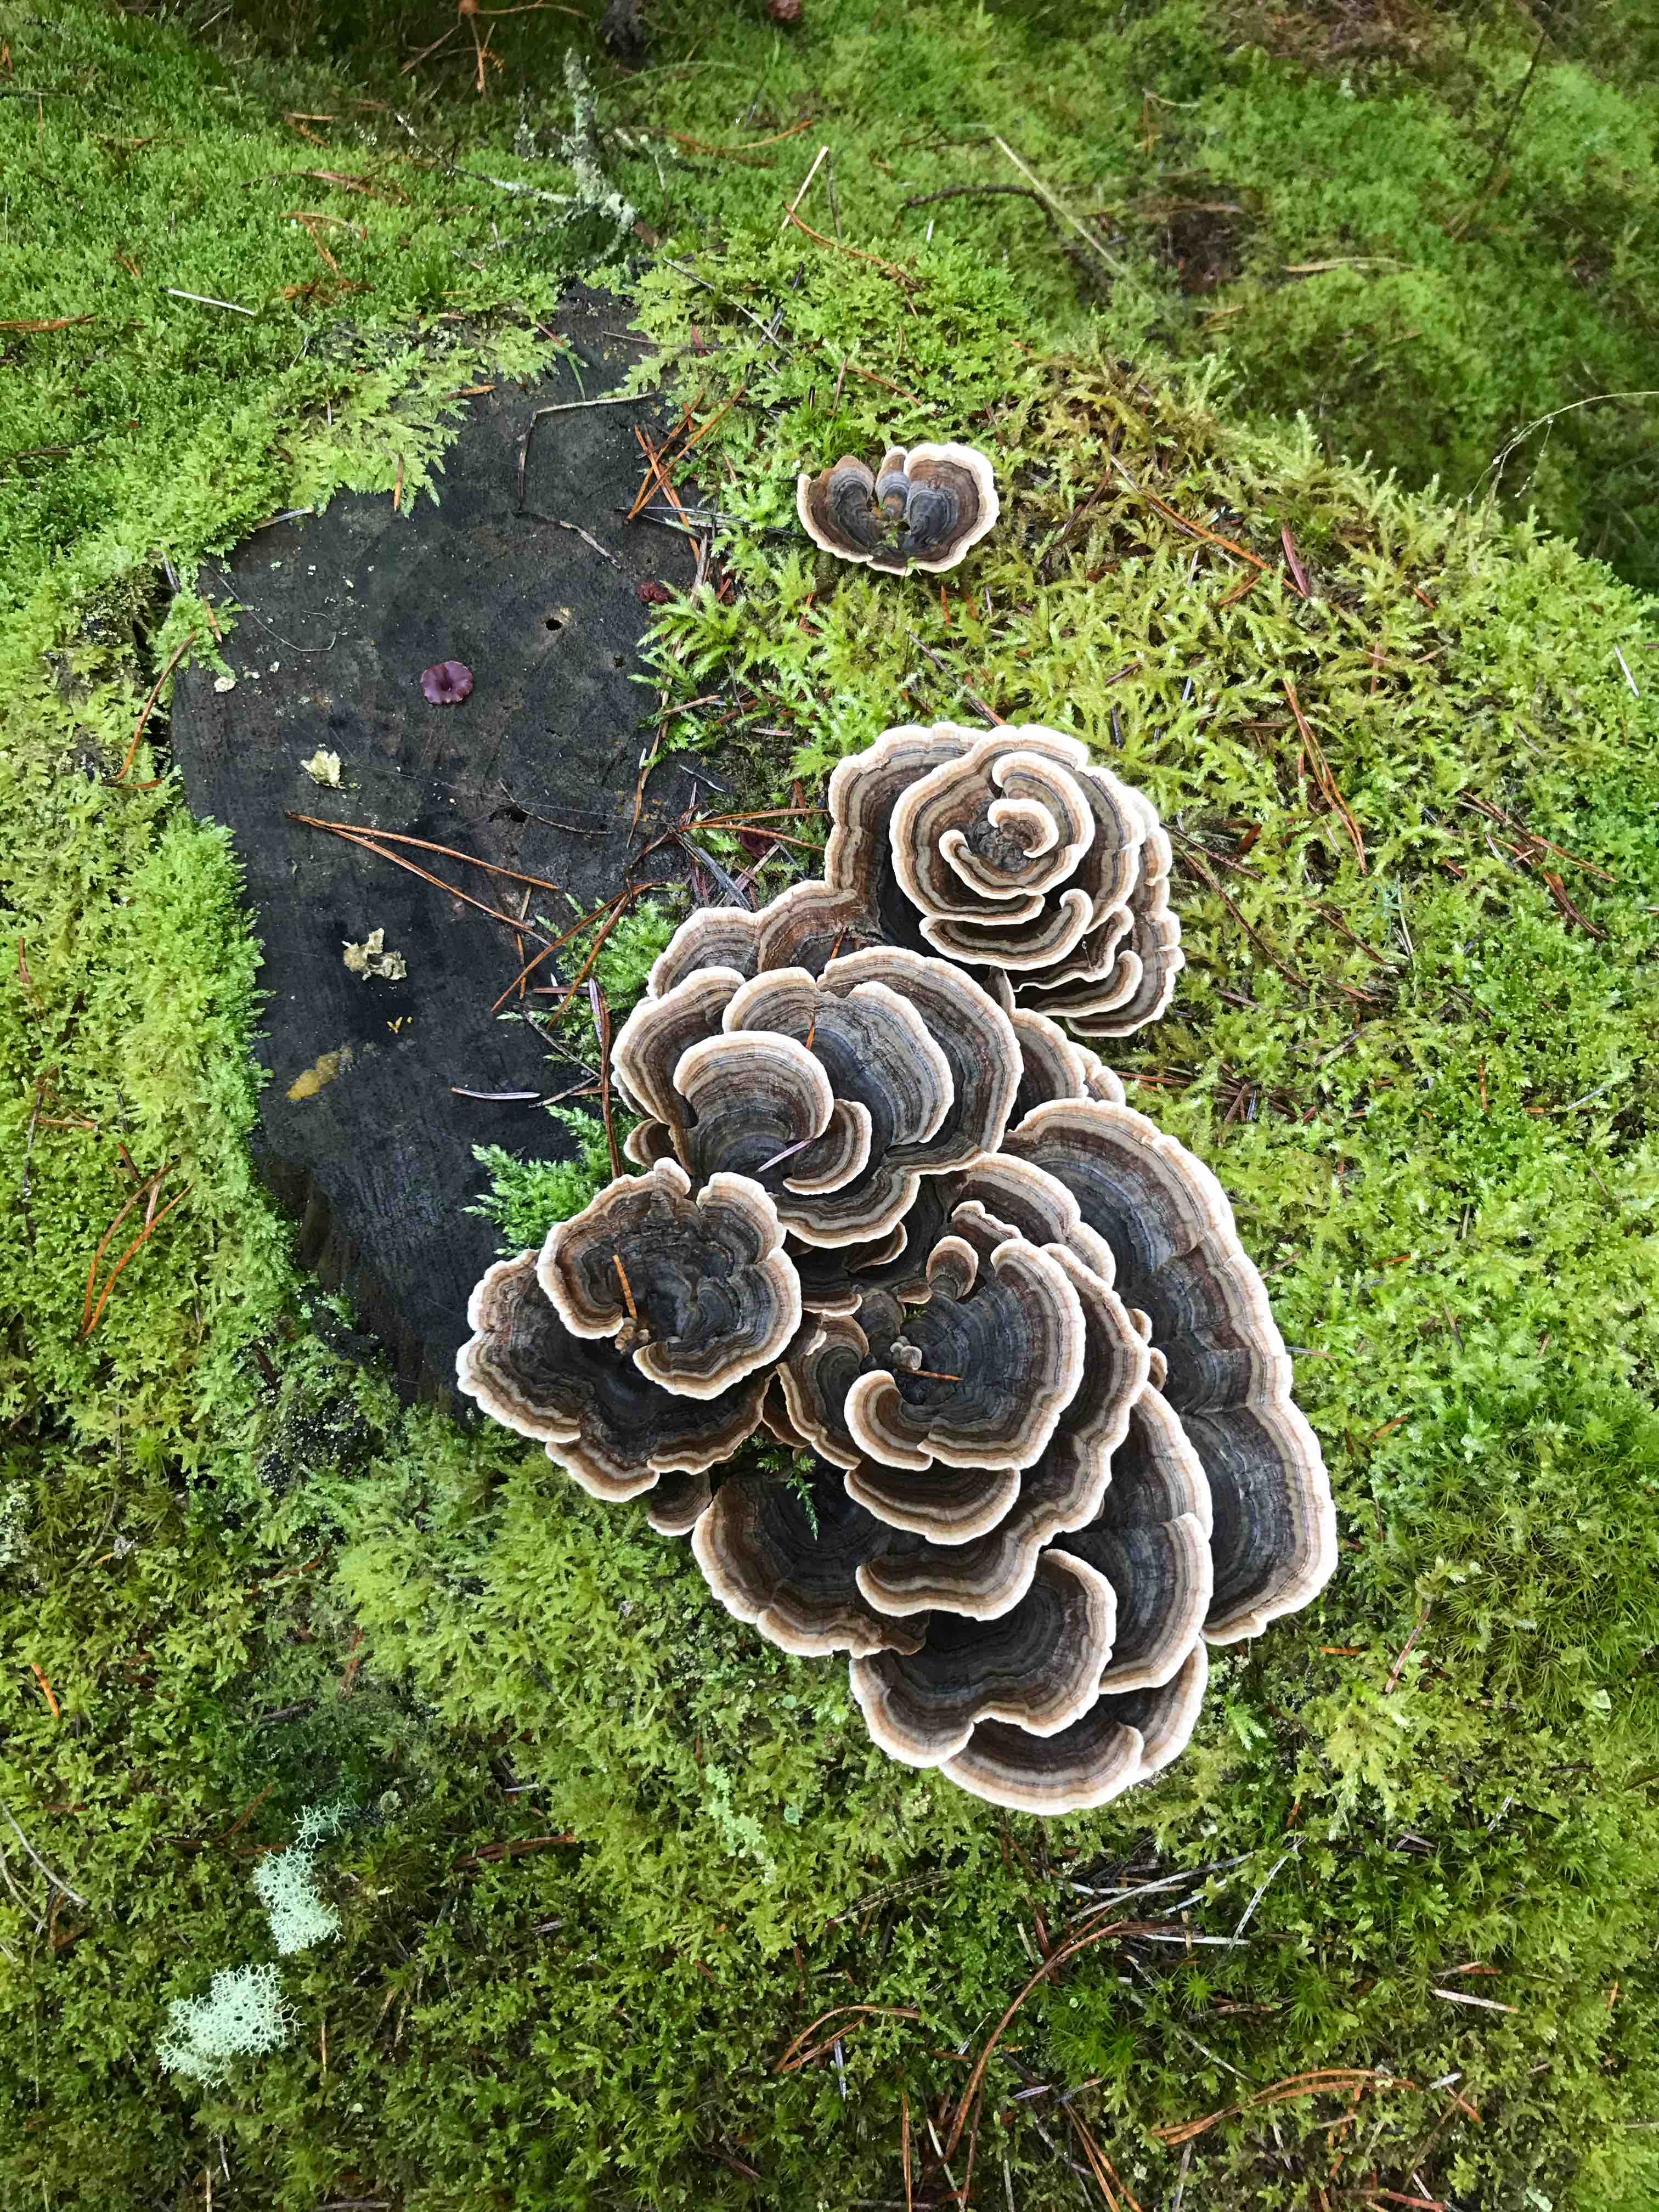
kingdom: Fungi
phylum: Basidiomycota
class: Agaricomycetes
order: Polyporales
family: Polyporaceae
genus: Trametes
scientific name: Trametes versicolor
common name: broget læderporesvamp
